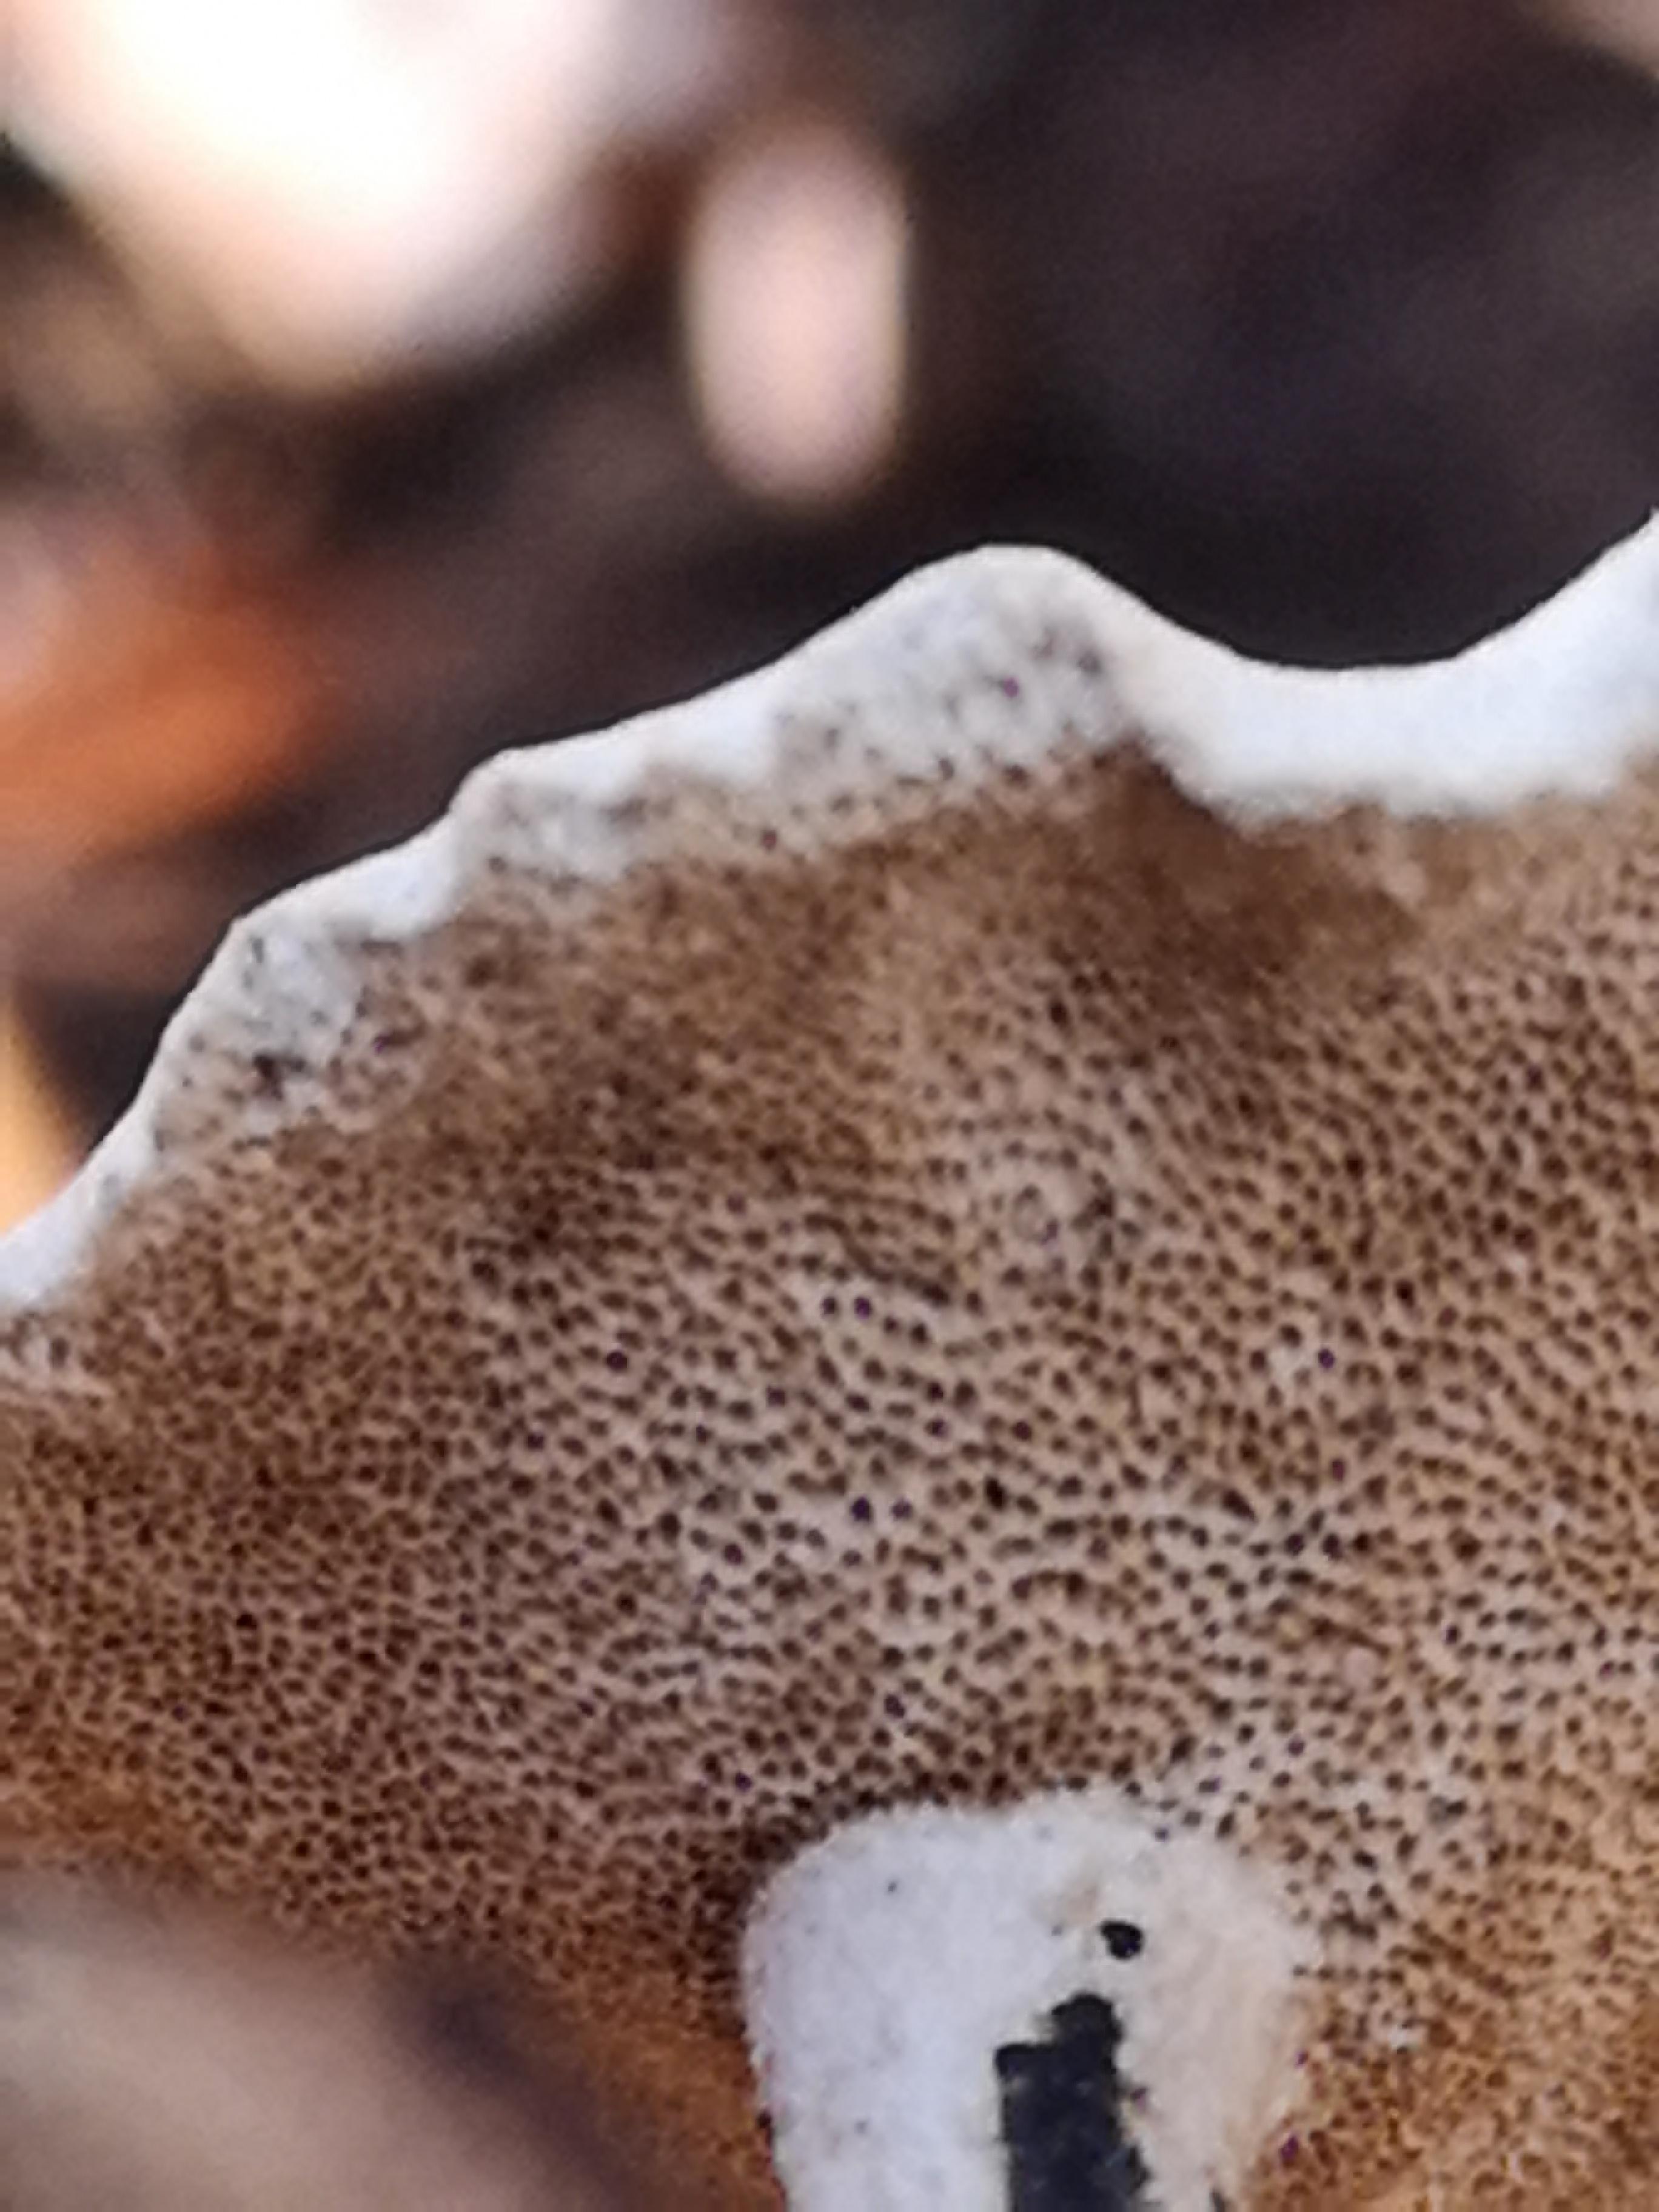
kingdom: Fungi
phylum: Basidiomycota
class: Agaricomycetes
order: Polyporales
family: Polyporaceae
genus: Lentinus
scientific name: Lentinus brumalis
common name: vinter-stilkporesvamp
